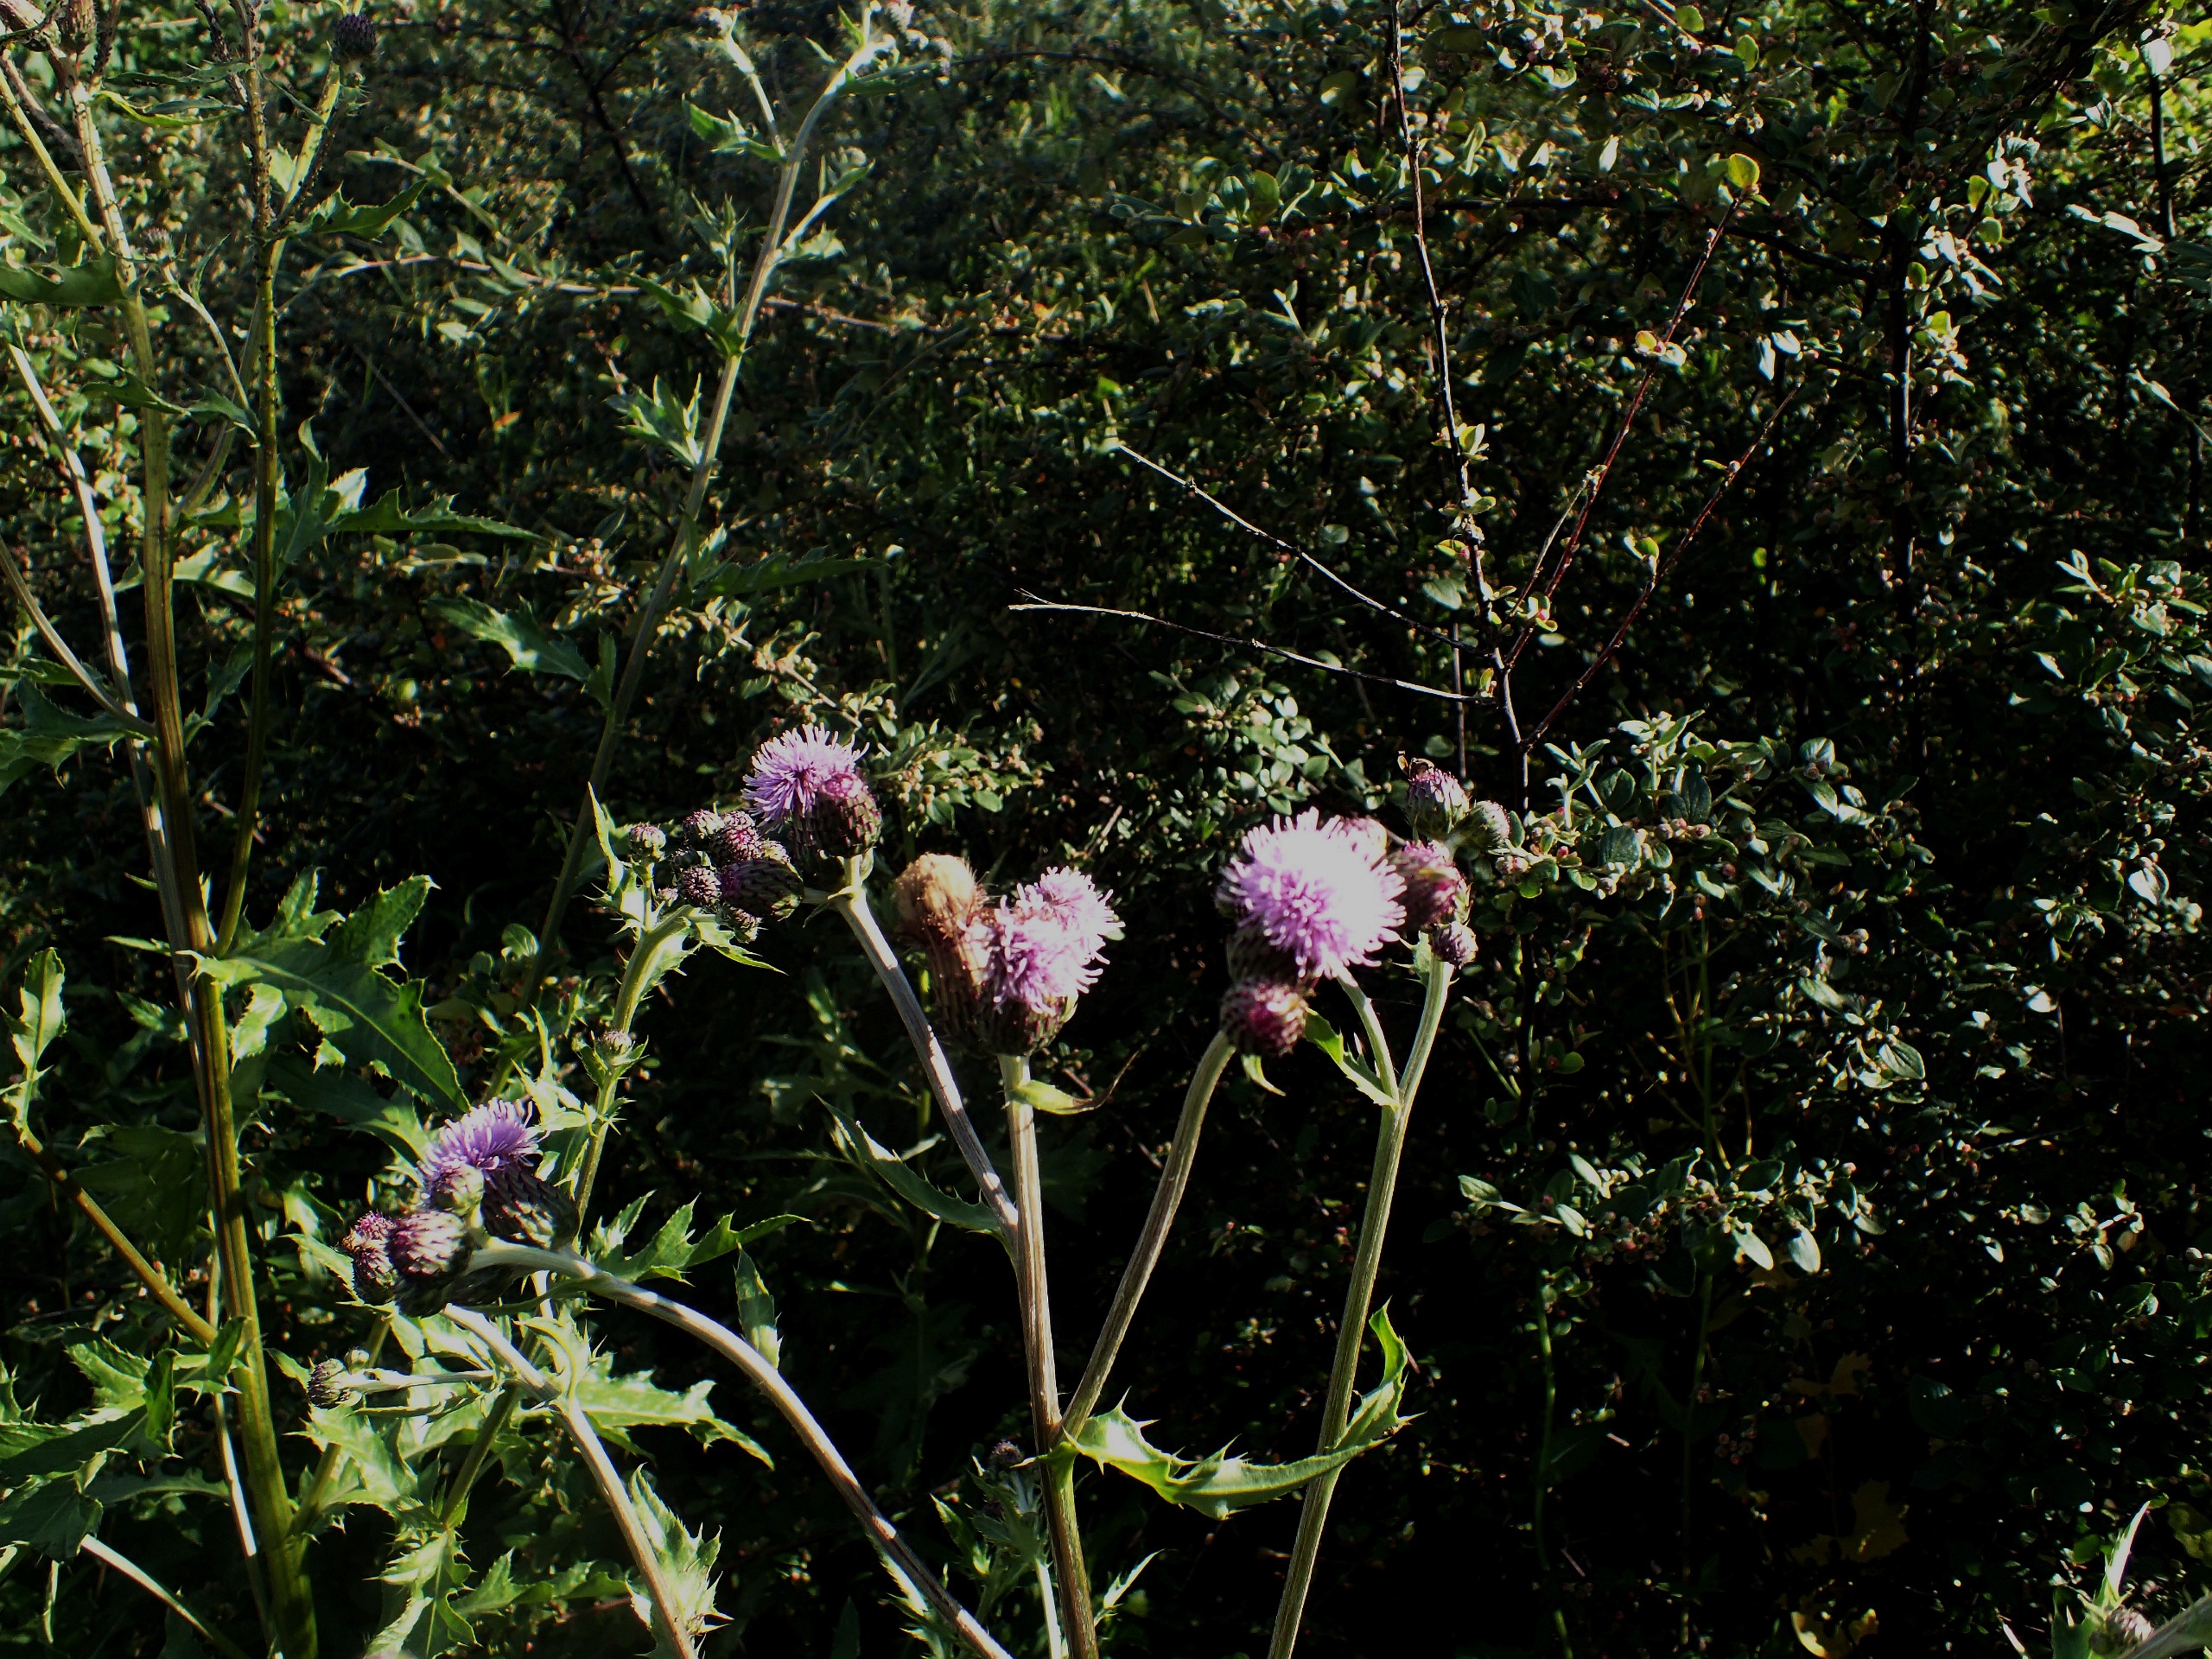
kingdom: Plantae
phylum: Tracheophyta
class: Magnoliopsida
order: Asterales
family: Asteraceae
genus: Cirsium
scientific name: Cirsium arvense
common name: Ager-tidsel
